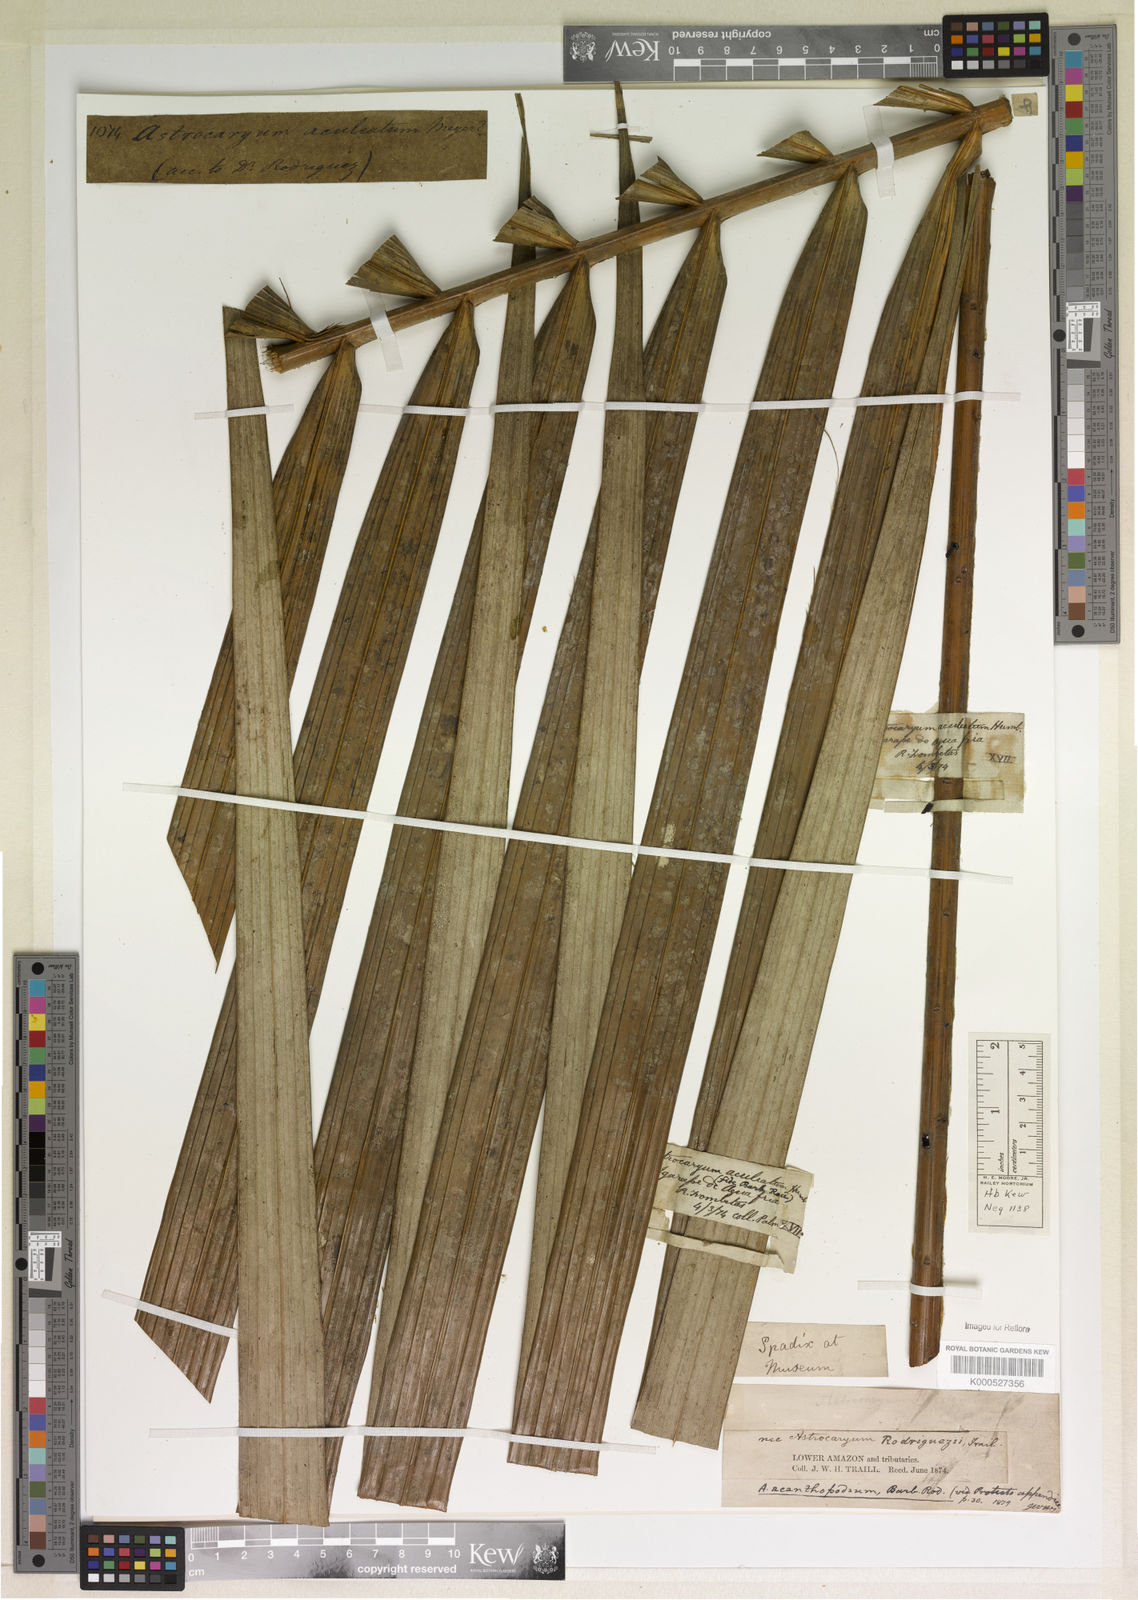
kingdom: Plantae
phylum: Tracheophyta
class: Liliopsida
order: Arecales
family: Arecaceae
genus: Astrocaryum
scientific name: Astrocaryum aculeatum
